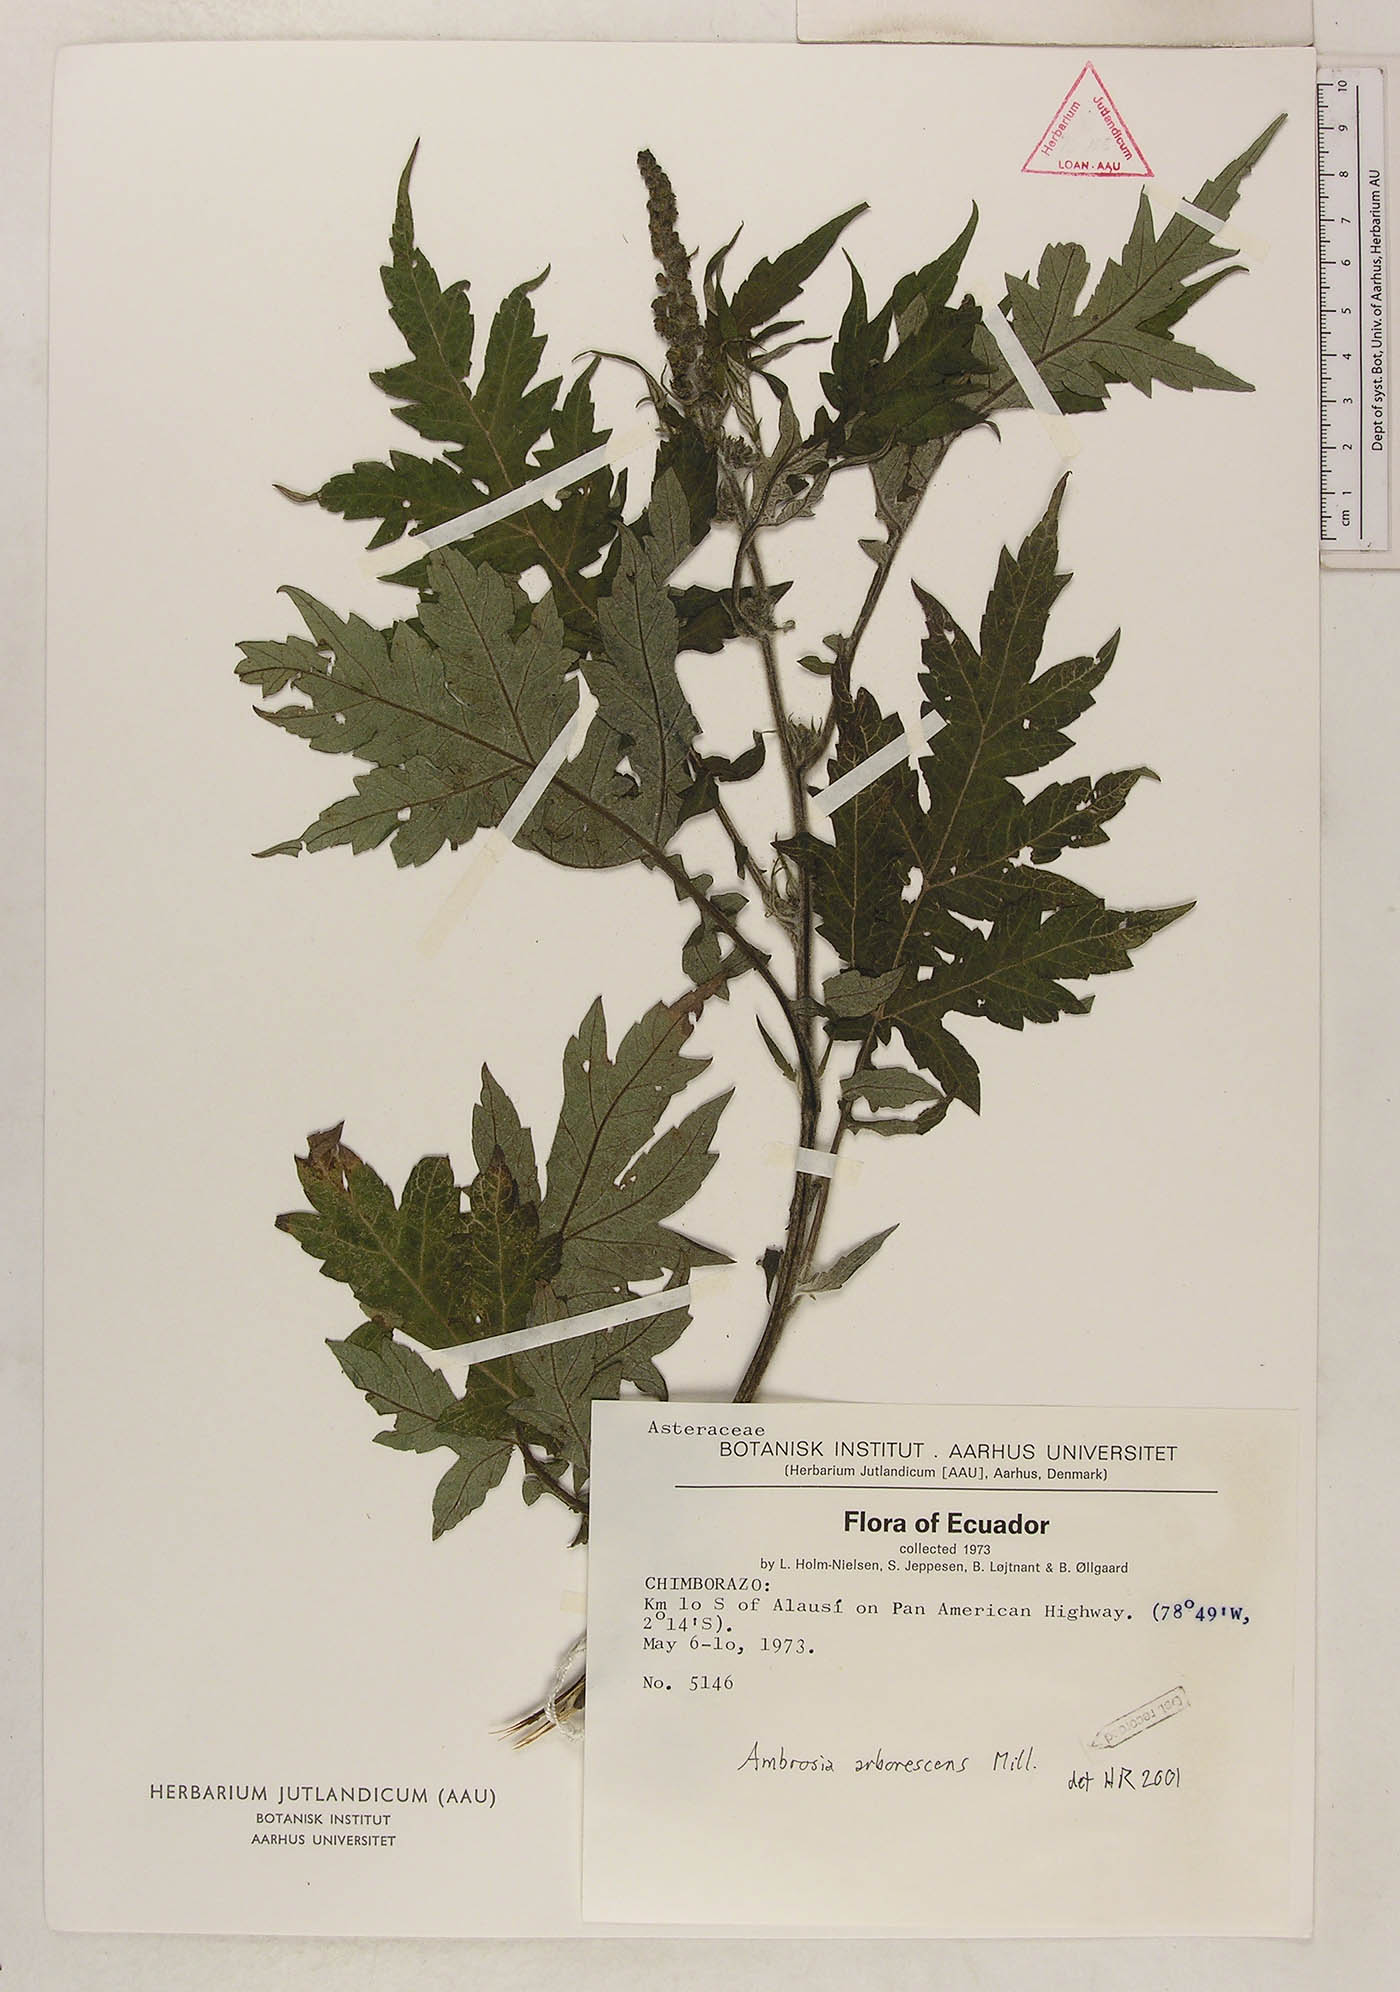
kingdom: Plantae
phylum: Tracheophyta
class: Magnoliopsida
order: Asterales
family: Asteraceae
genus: Ambrosia
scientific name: Ambrosia arborescens
